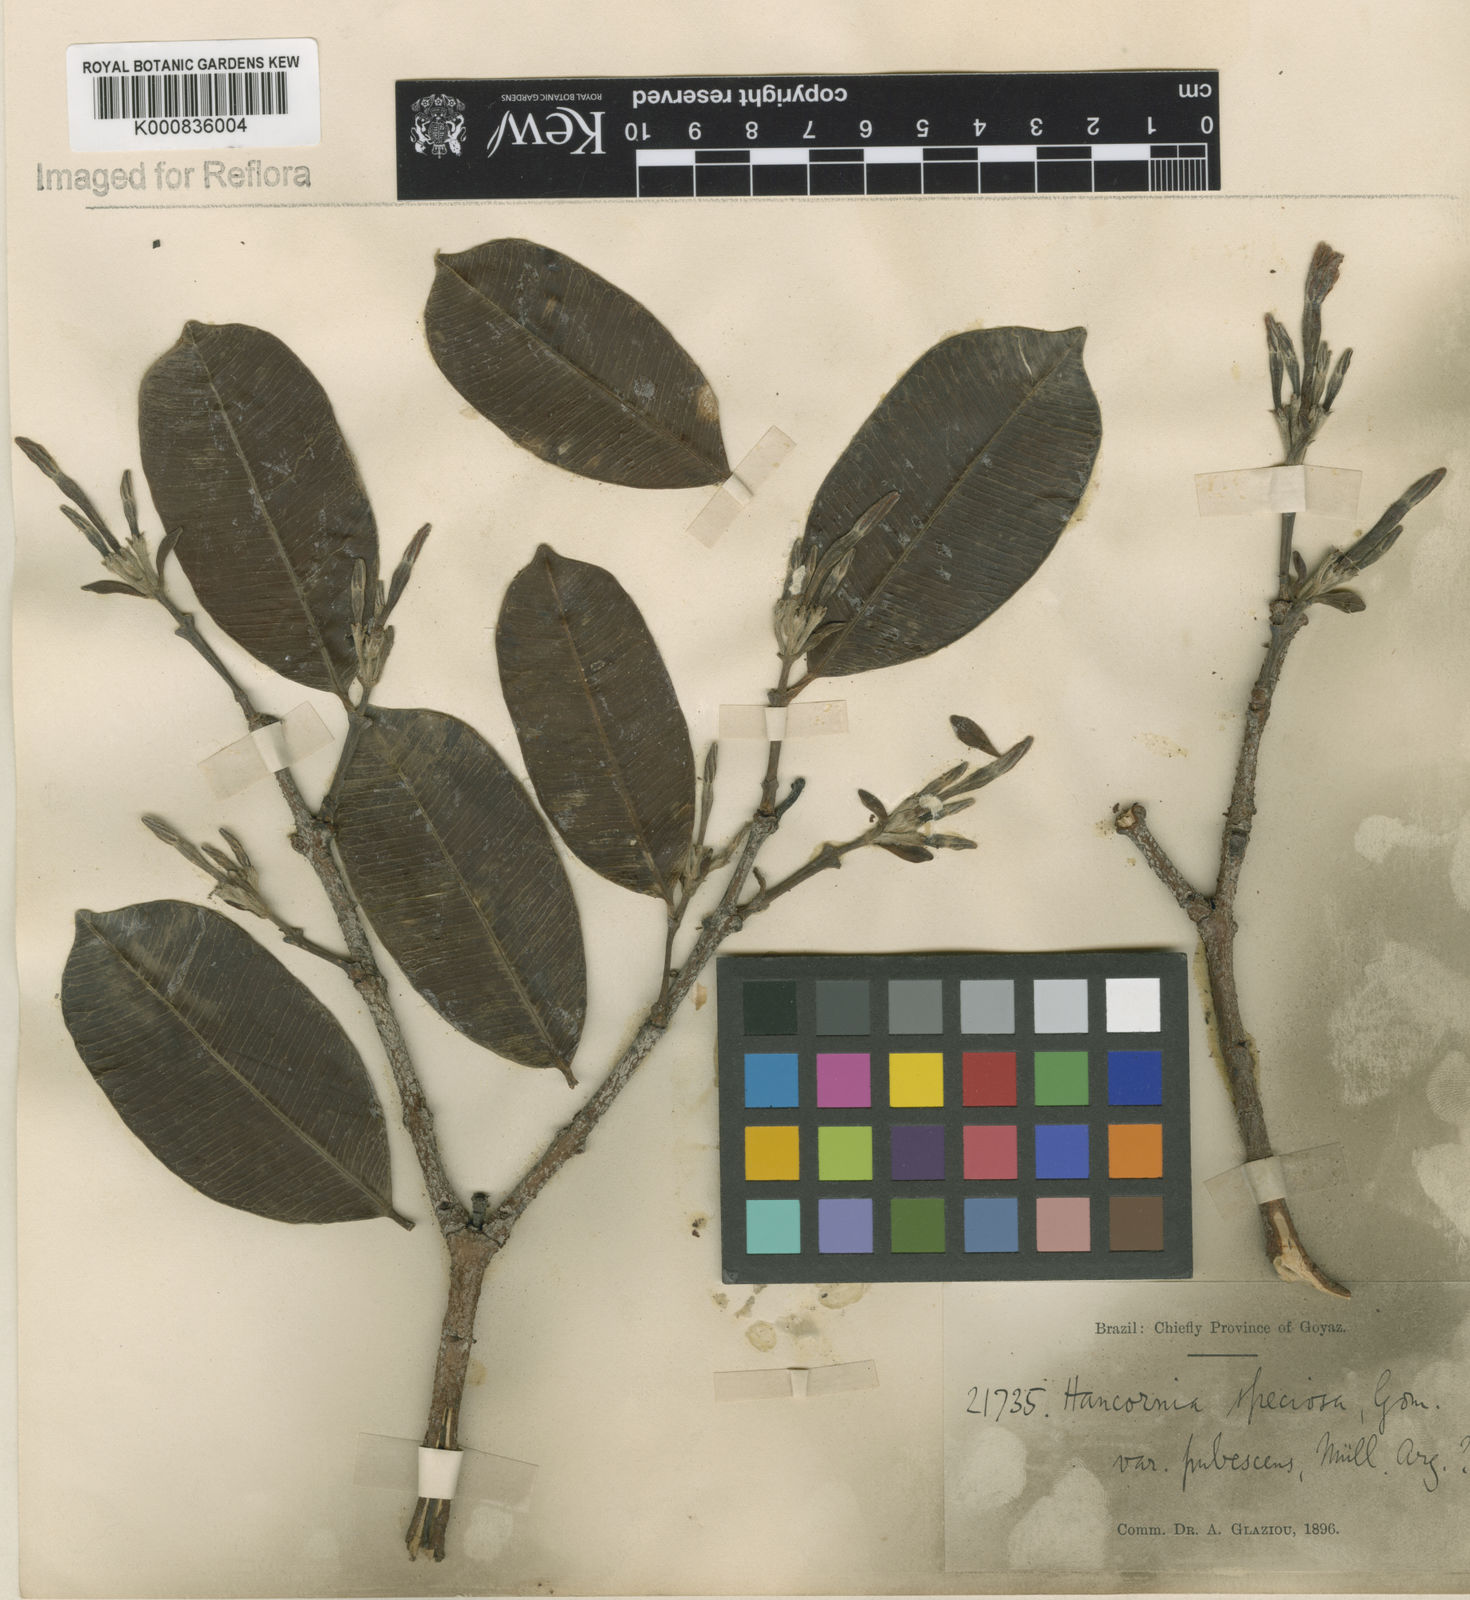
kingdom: Plantae
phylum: Tracheophyta
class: Magnoliopsida
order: Gentianales
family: Apocynaceae
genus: Hancornia
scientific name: Hancornia speciosa
